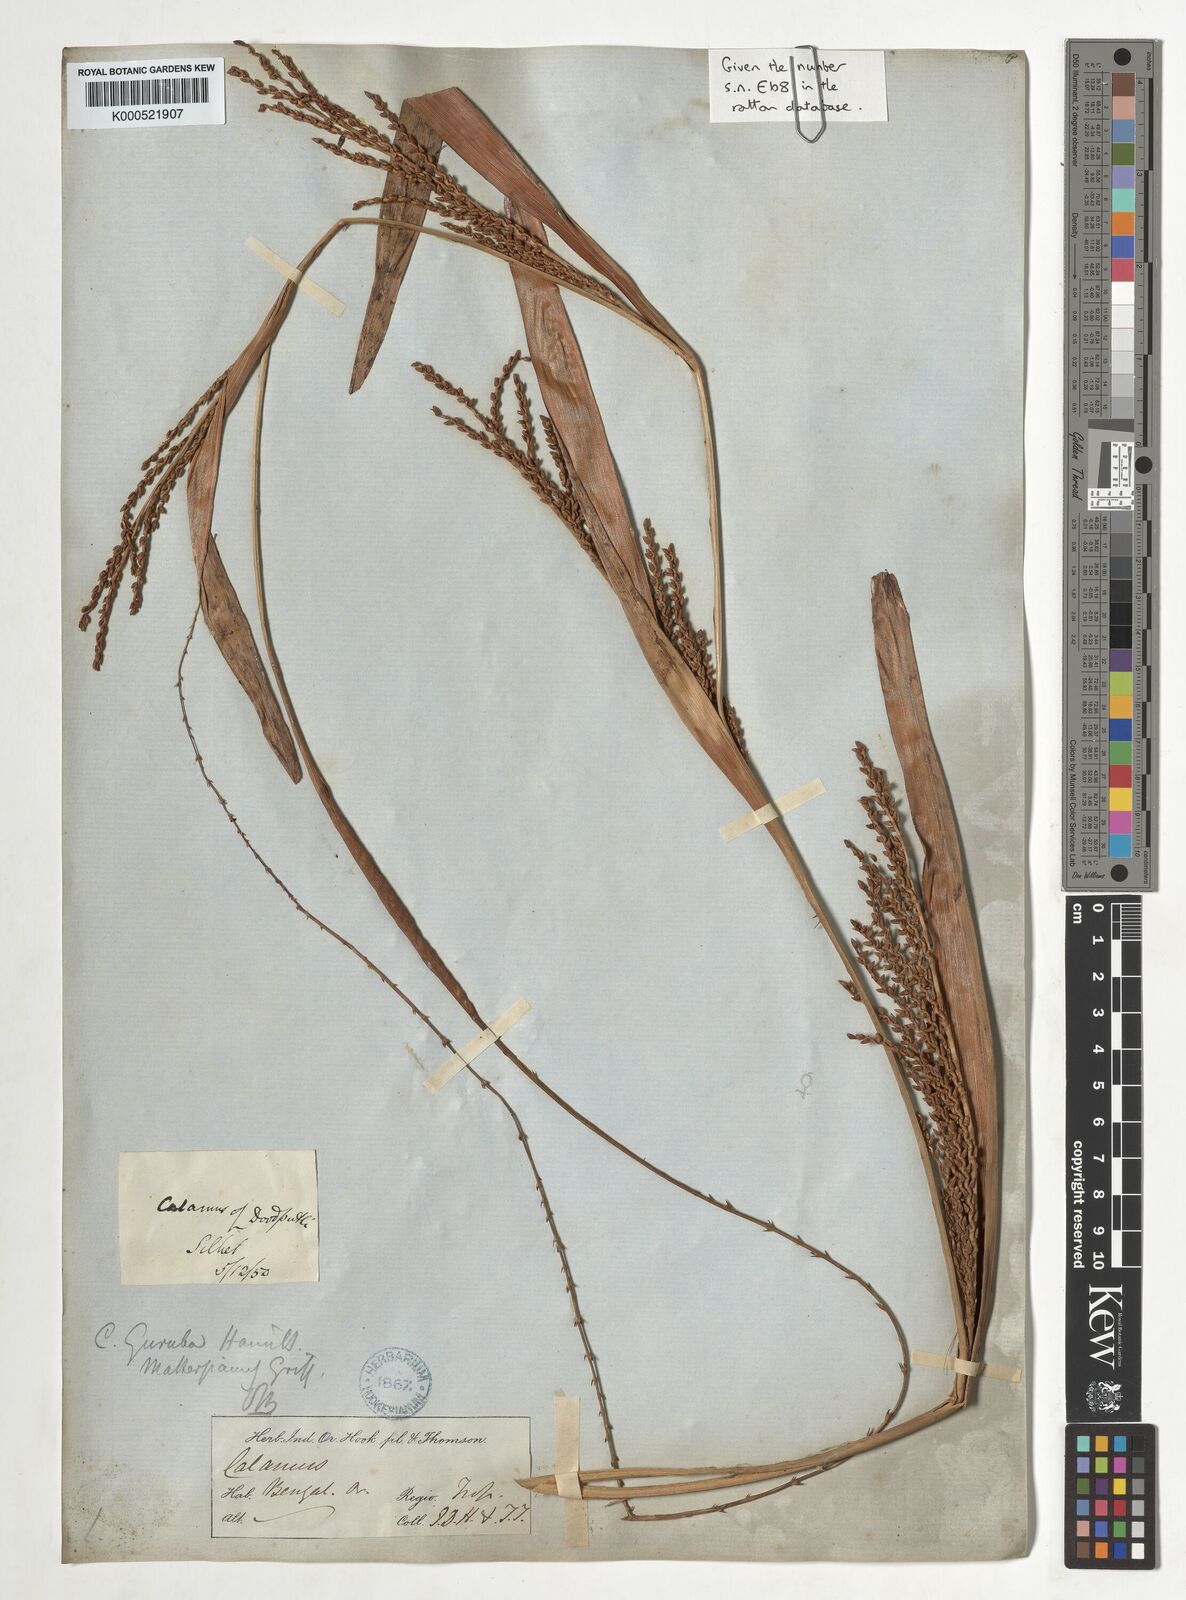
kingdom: Plantae
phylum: Tracheophyta
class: Liliopsida
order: Arecales
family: Arecaceae
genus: Calamus
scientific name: Calamus
